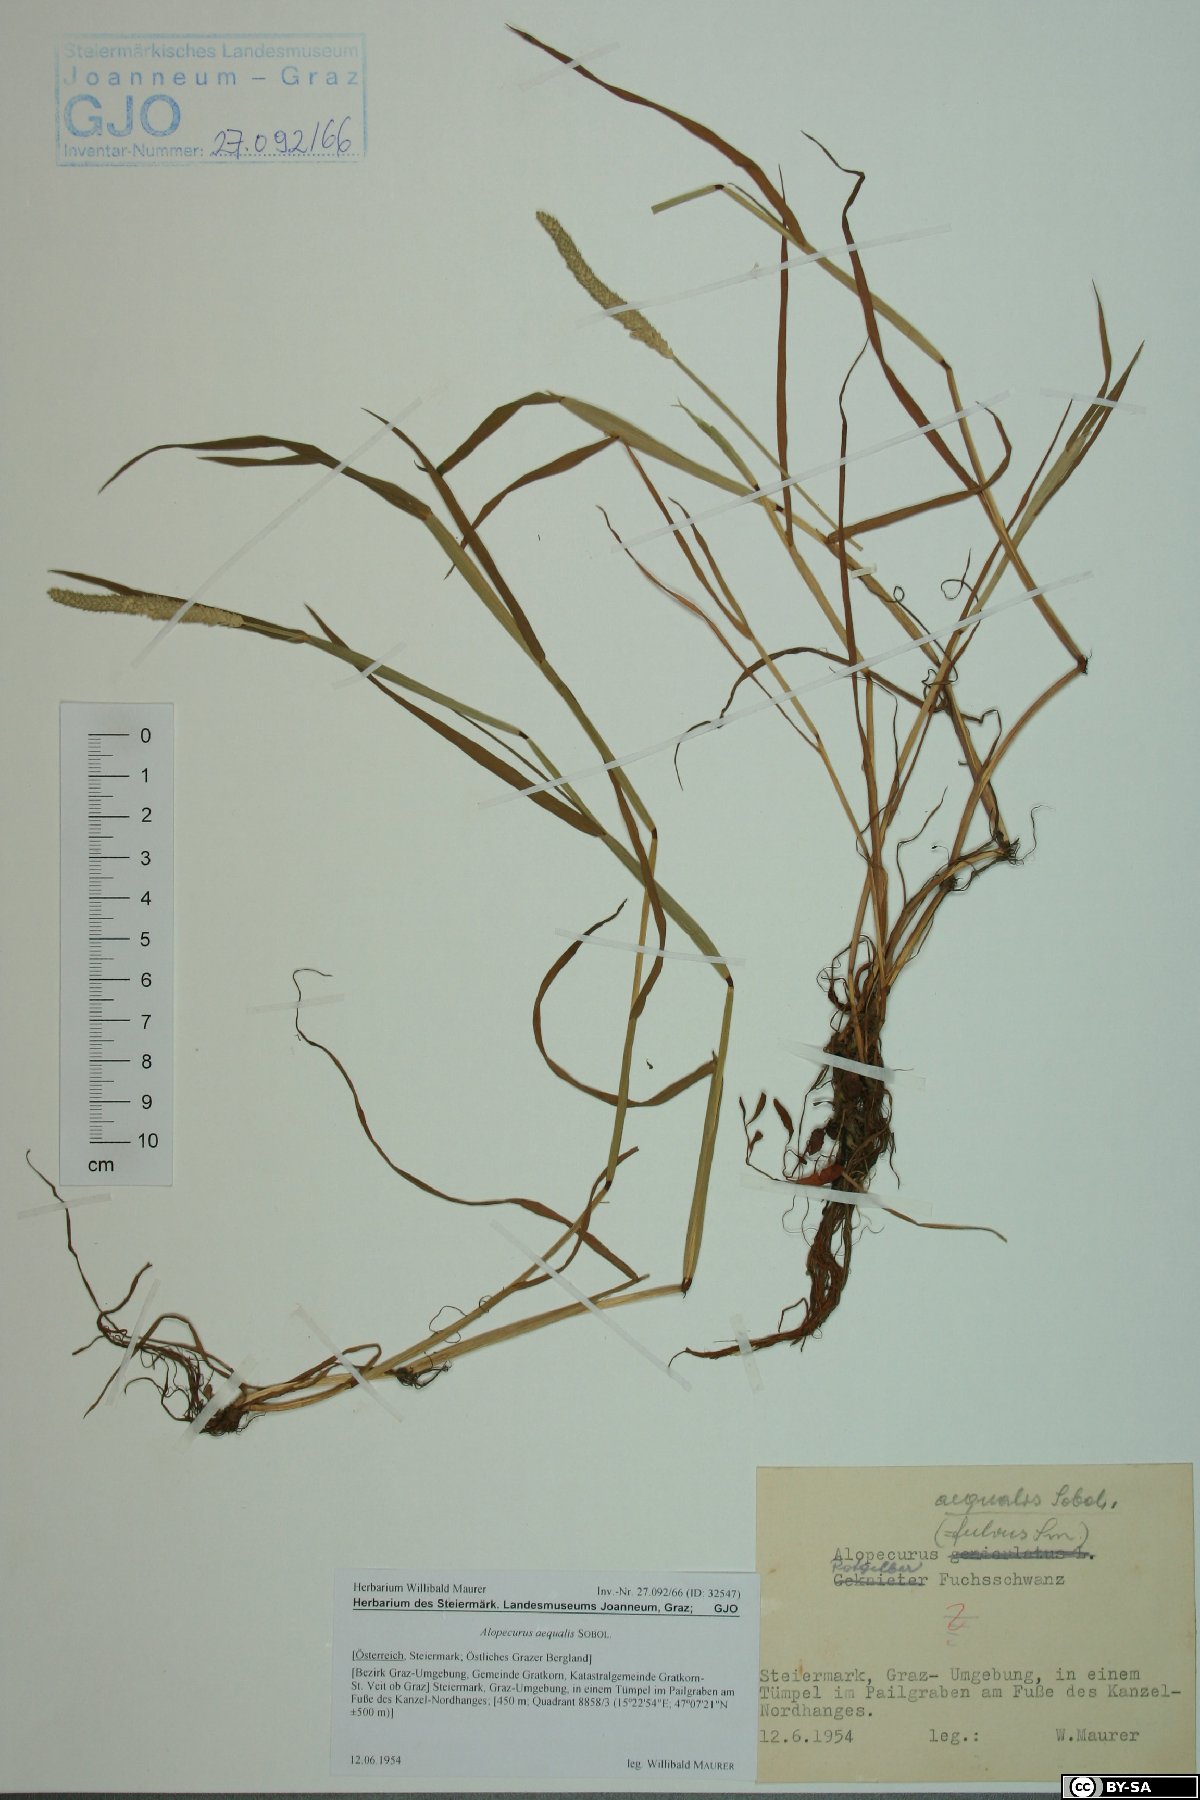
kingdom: Plantae
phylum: Tracheophyta
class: Liliopsida
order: Poales
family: Poaceae
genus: Alopecurus
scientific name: Alopecurus aequalis
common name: Orange foxtail
